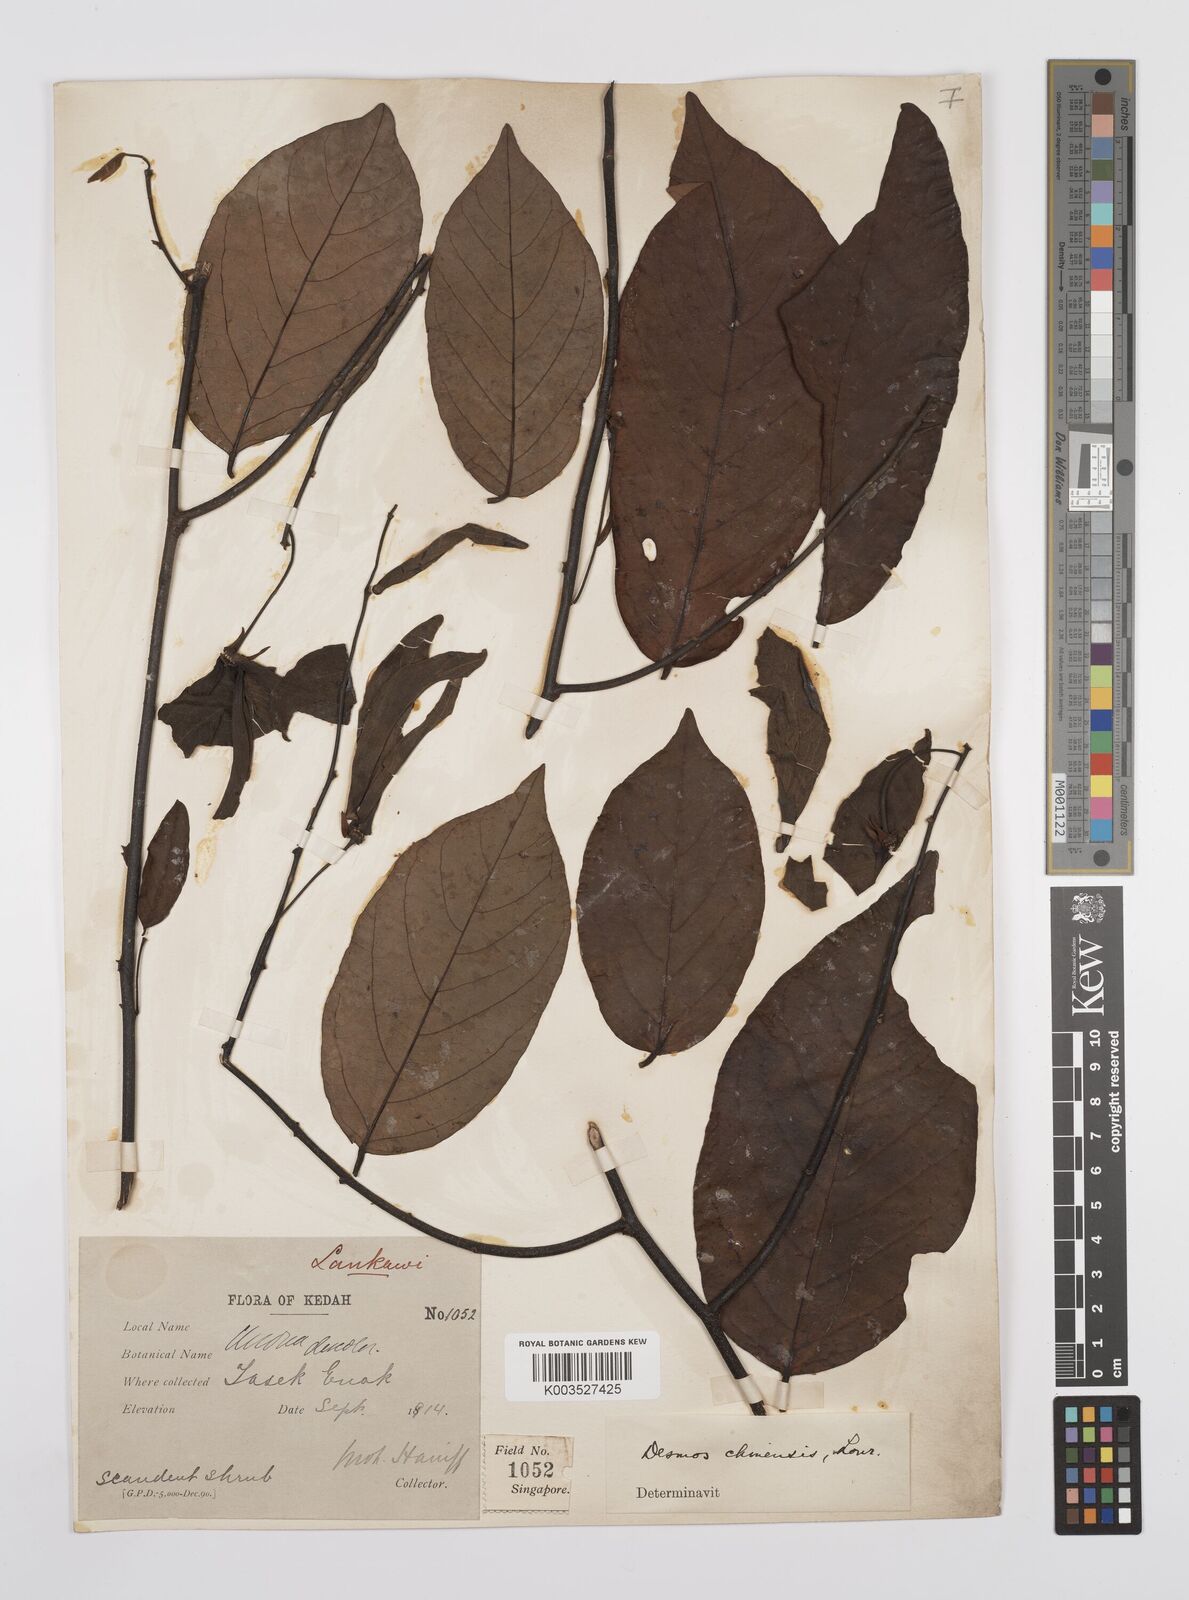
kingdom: Plantae
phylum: Tracheophyta
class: Magnoliopsida
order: Magnoliales
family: Annonaceae
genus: Desmos
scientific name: Desmos chinensis
